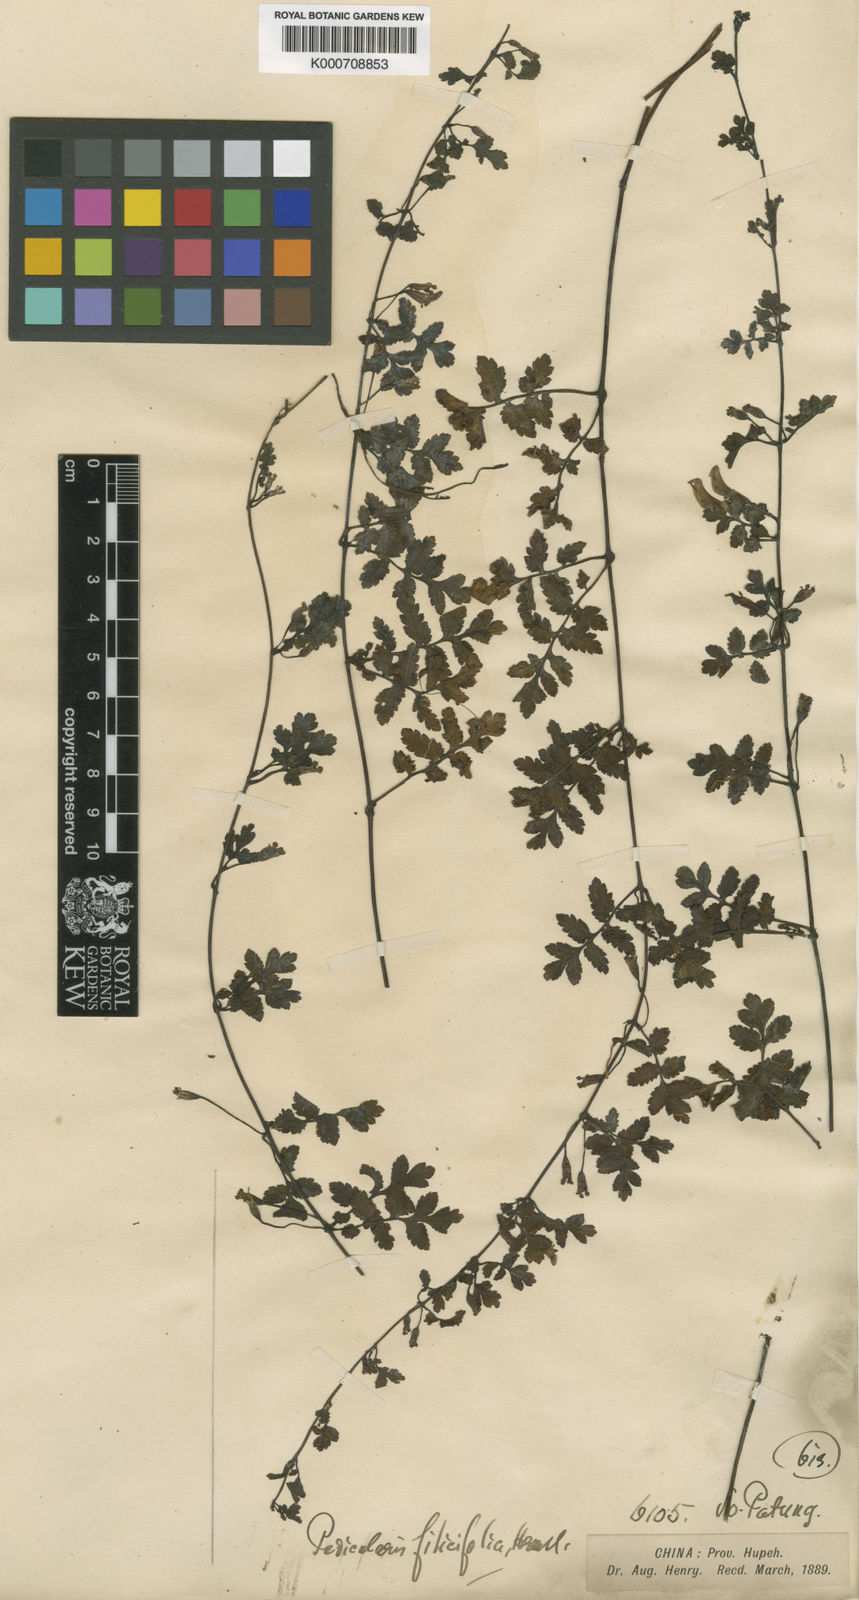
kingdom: Plantae
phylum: Tracheophyta
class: Magnoliopsida
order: Lamiales
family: Orobanchaceae
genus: Pedicularis
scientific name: Pedicularis filicifolia
